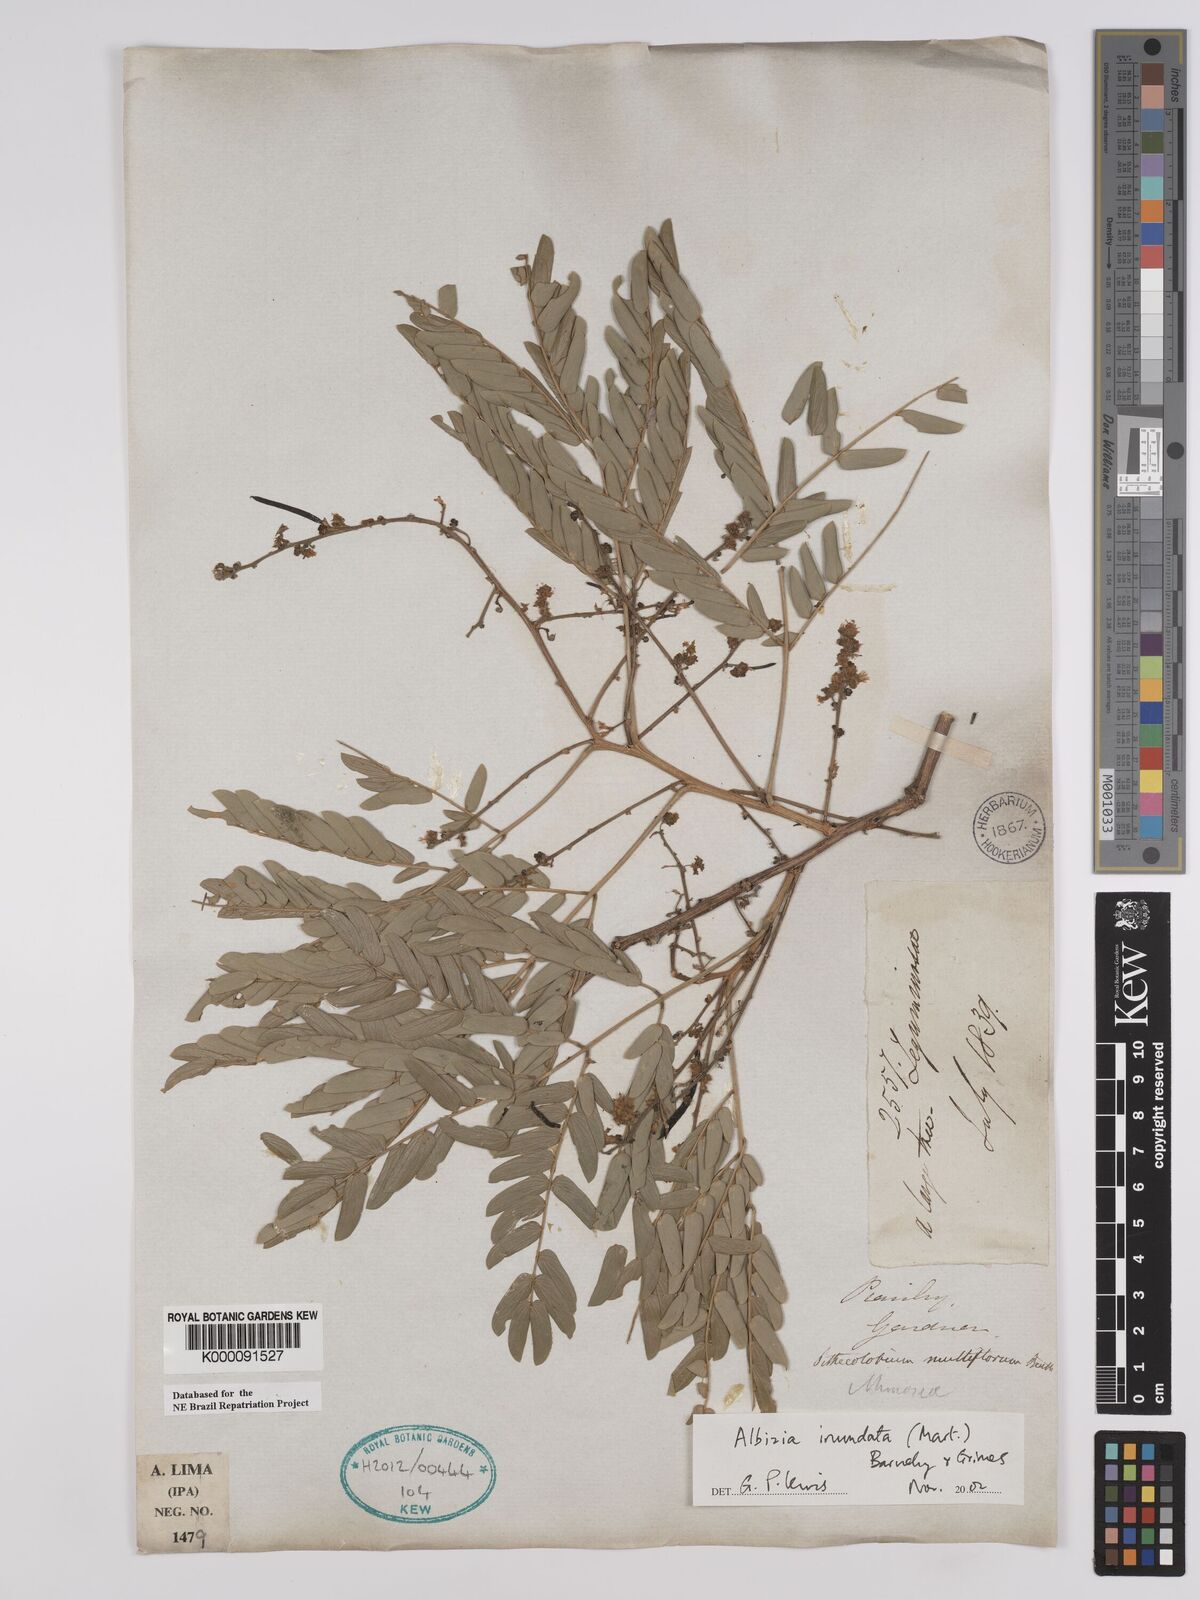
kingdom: Plantae
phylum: Tracheophyta
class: Magnoliopsida
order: Fabales
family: Fabaceae
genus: Albizia
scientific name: Albizia inundata
